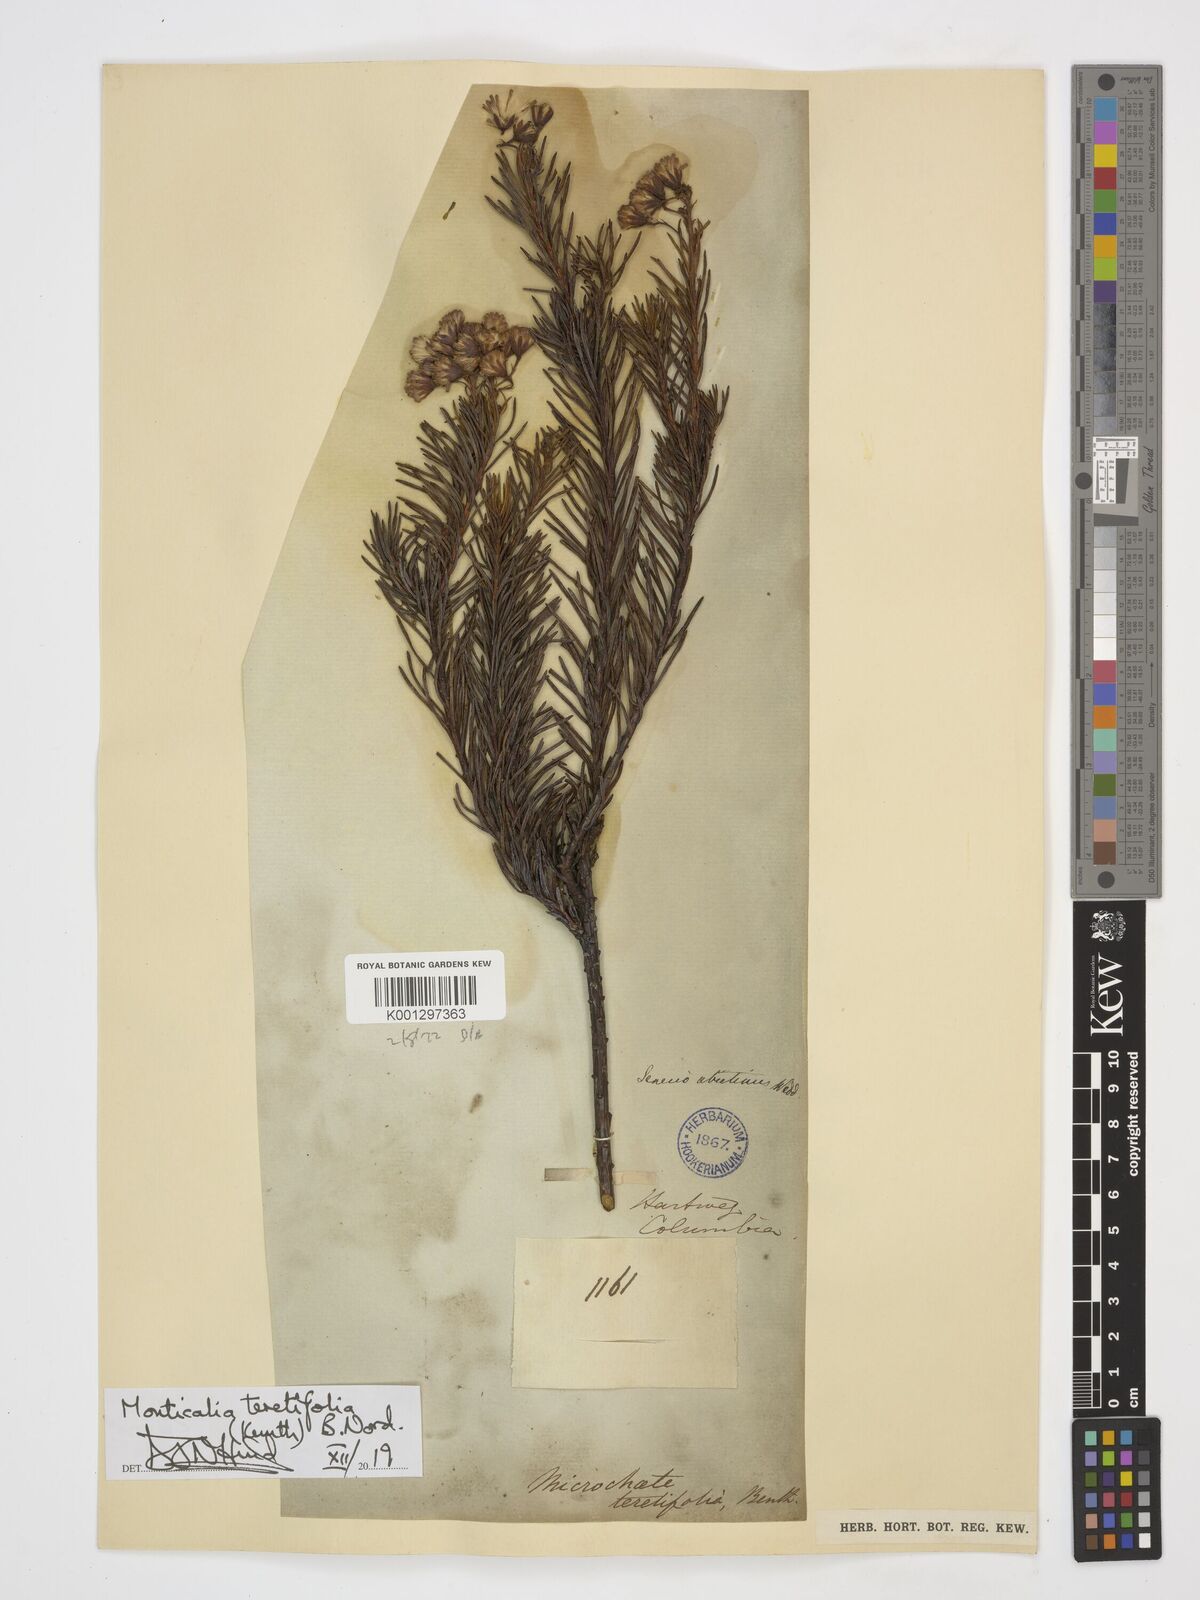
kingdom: Plantae
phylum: Tracheophyta
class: Magnoliopsida
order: Asterales
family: Asteraceae
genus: Monticalia
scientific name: Monticalia teretifolia
